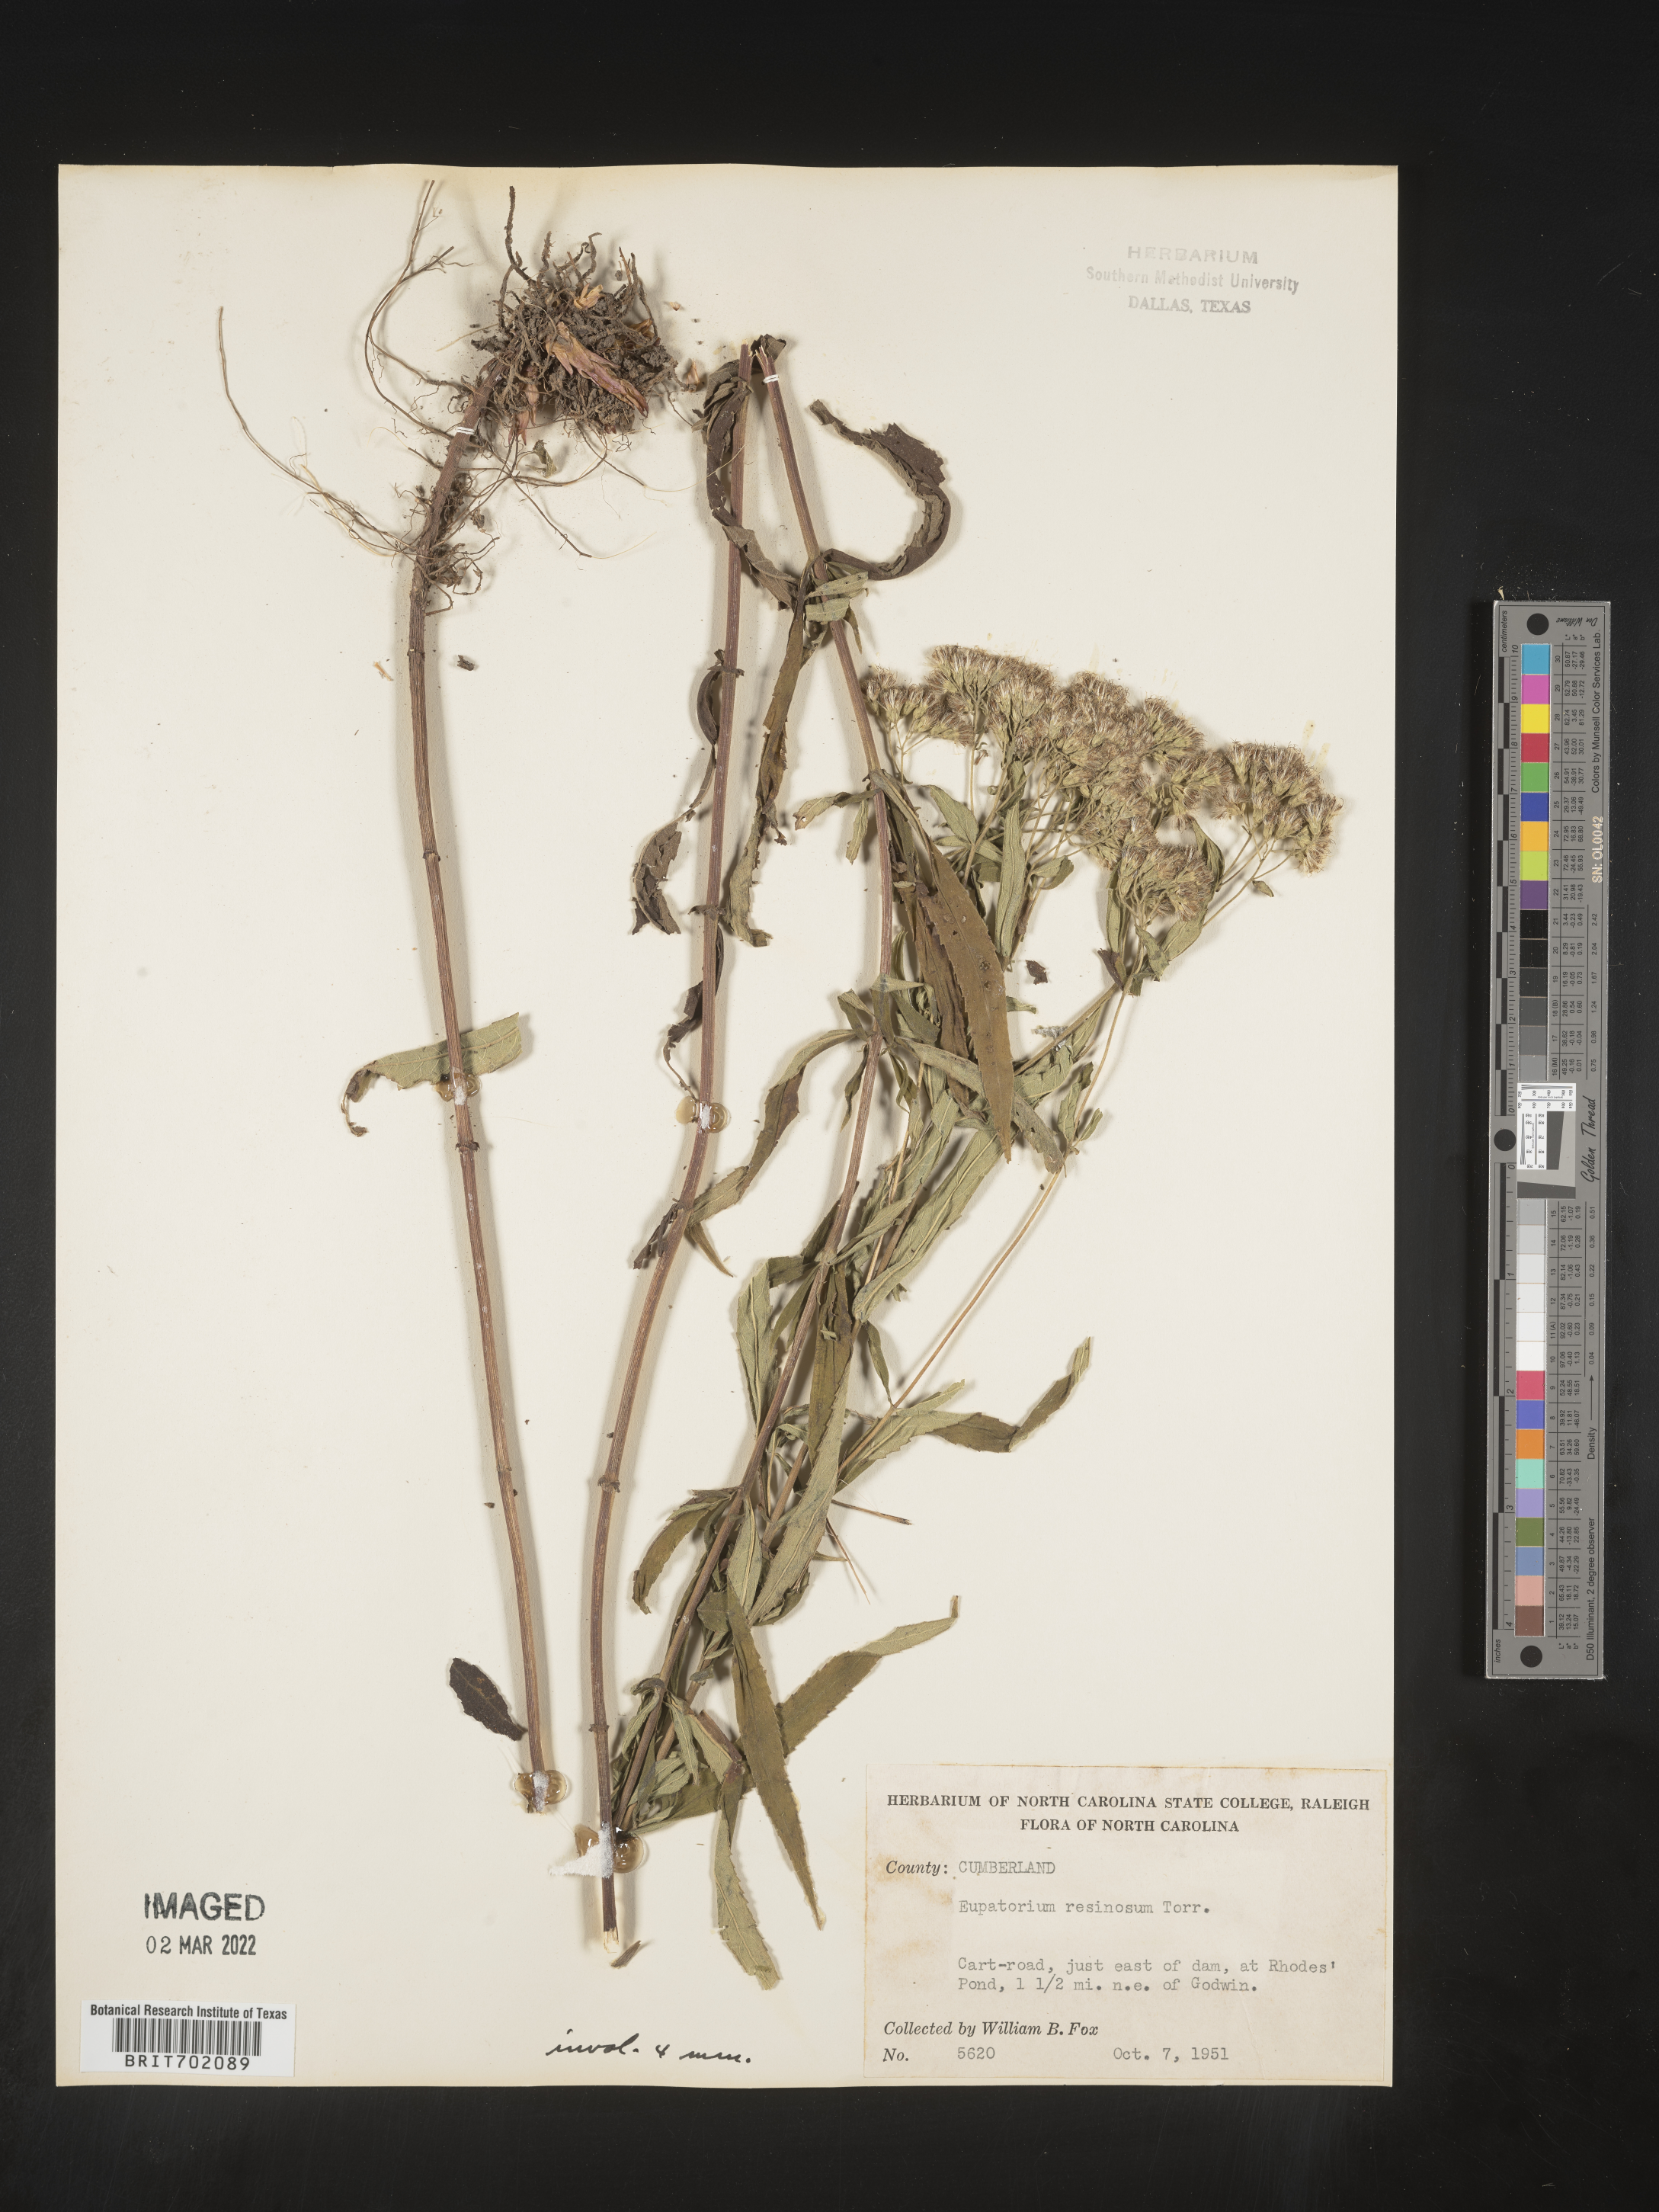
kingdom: Plantae
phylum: Tracheophyta
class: Magnoliopsida
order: Asterales
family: Asteraceae
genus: Eupatorium
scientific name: Eupatorium resinosum
